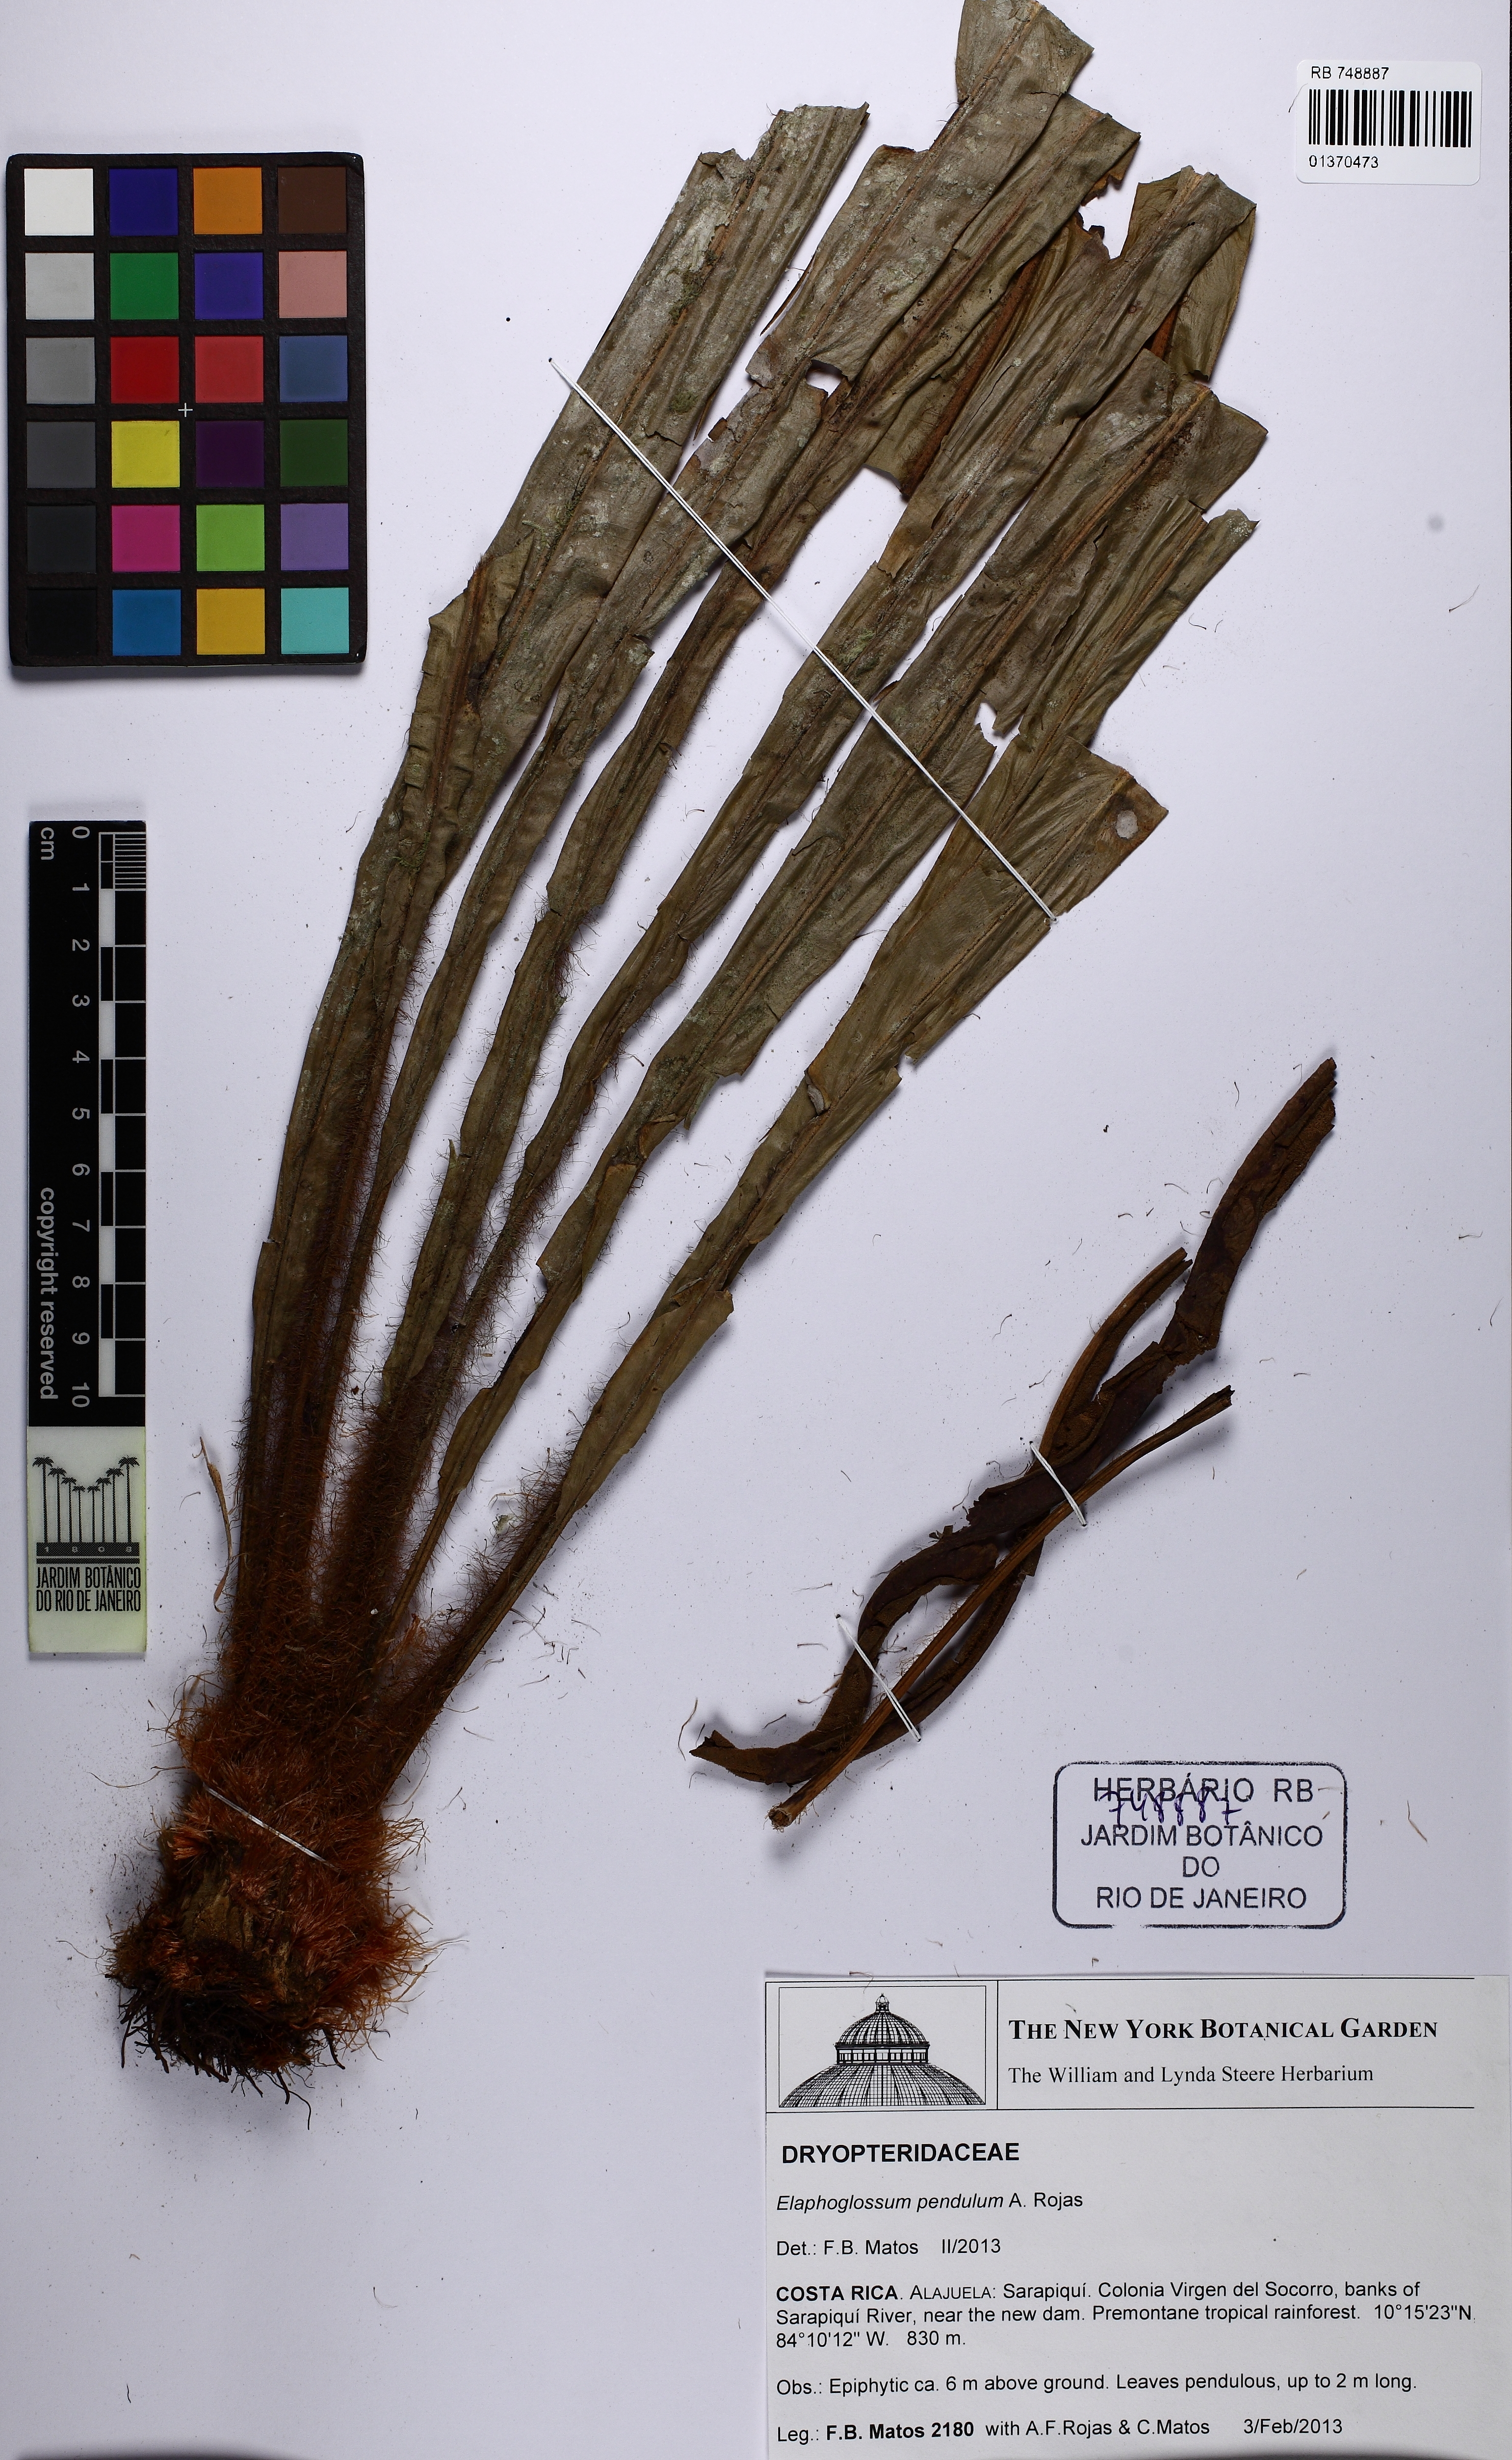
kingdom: Plantae
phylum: Tracheophyta
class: Polypodiopsida
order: Polypodiales
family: Dryopteridaceae
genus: Elaphoglossum
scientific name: Elaphoglossum pendulum
